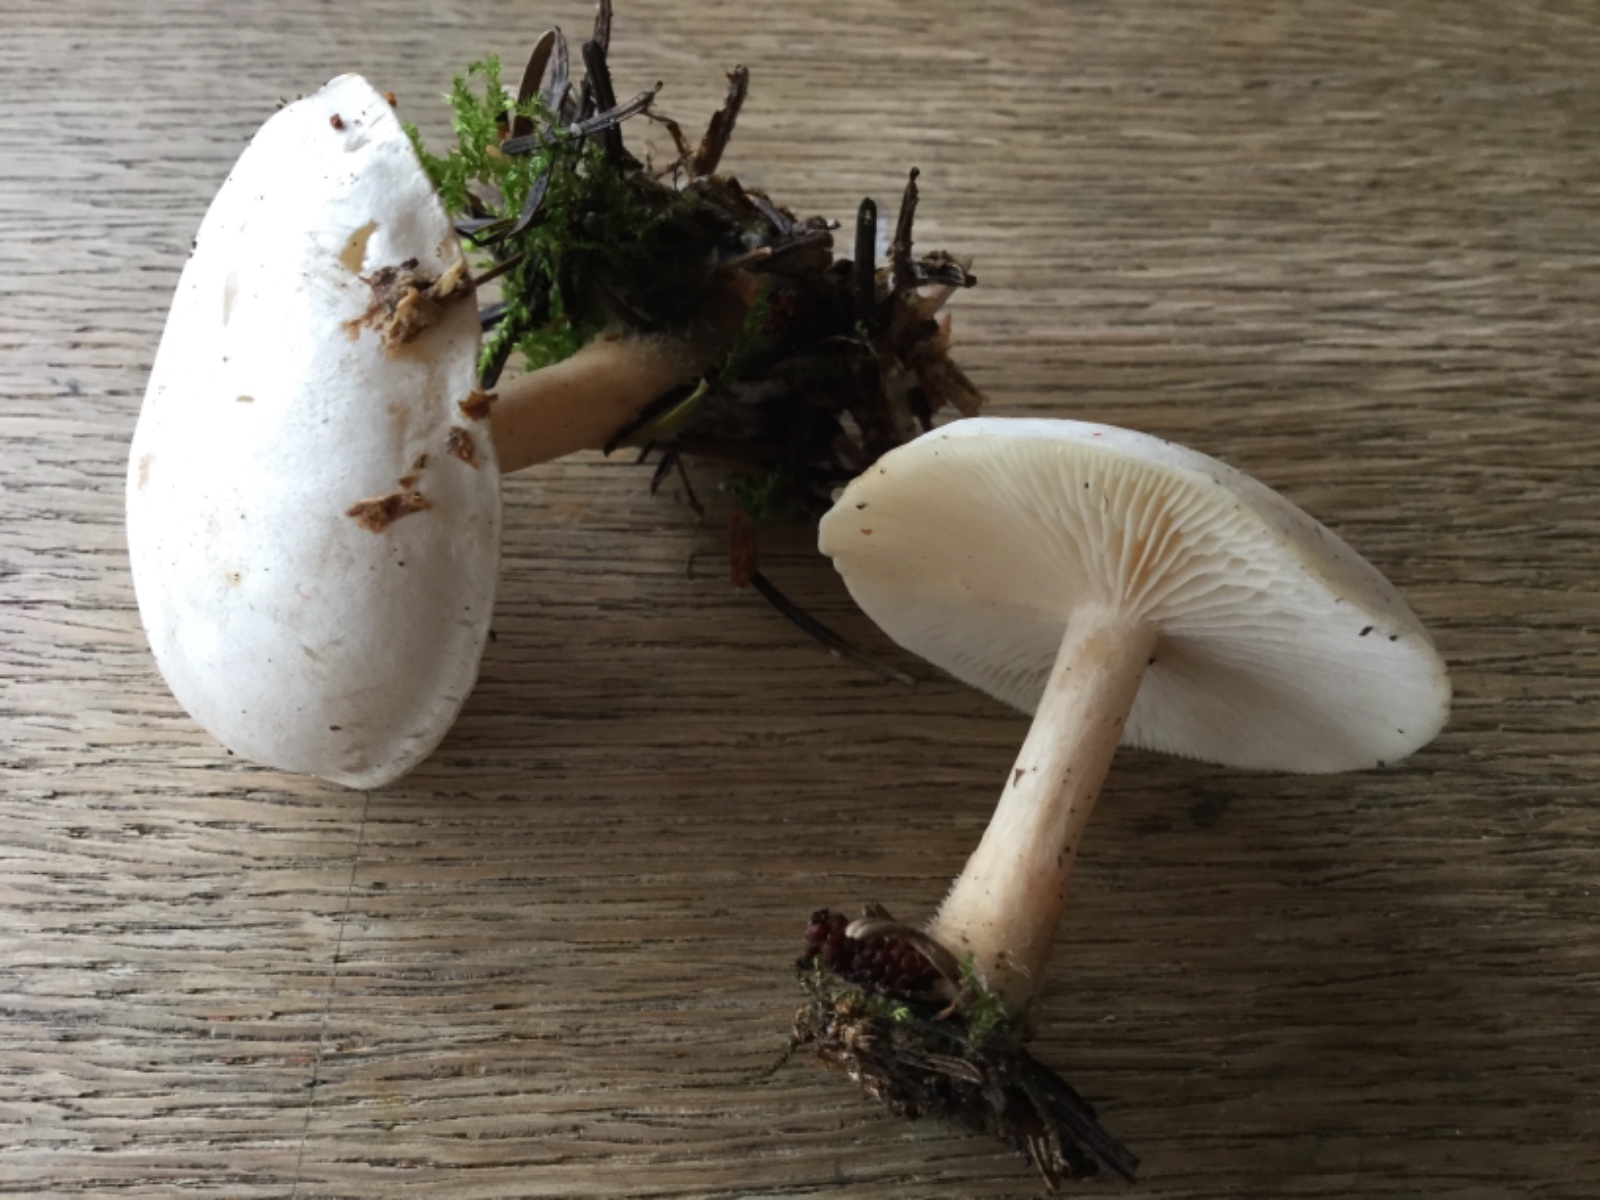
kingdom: Fungi
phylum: Basidiomycota
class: Agaricomycetes
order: Agaricales
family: Tricholomataceae
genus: Clitocybe
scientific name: Clitocybe phyllophila
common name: løv-tragthat
